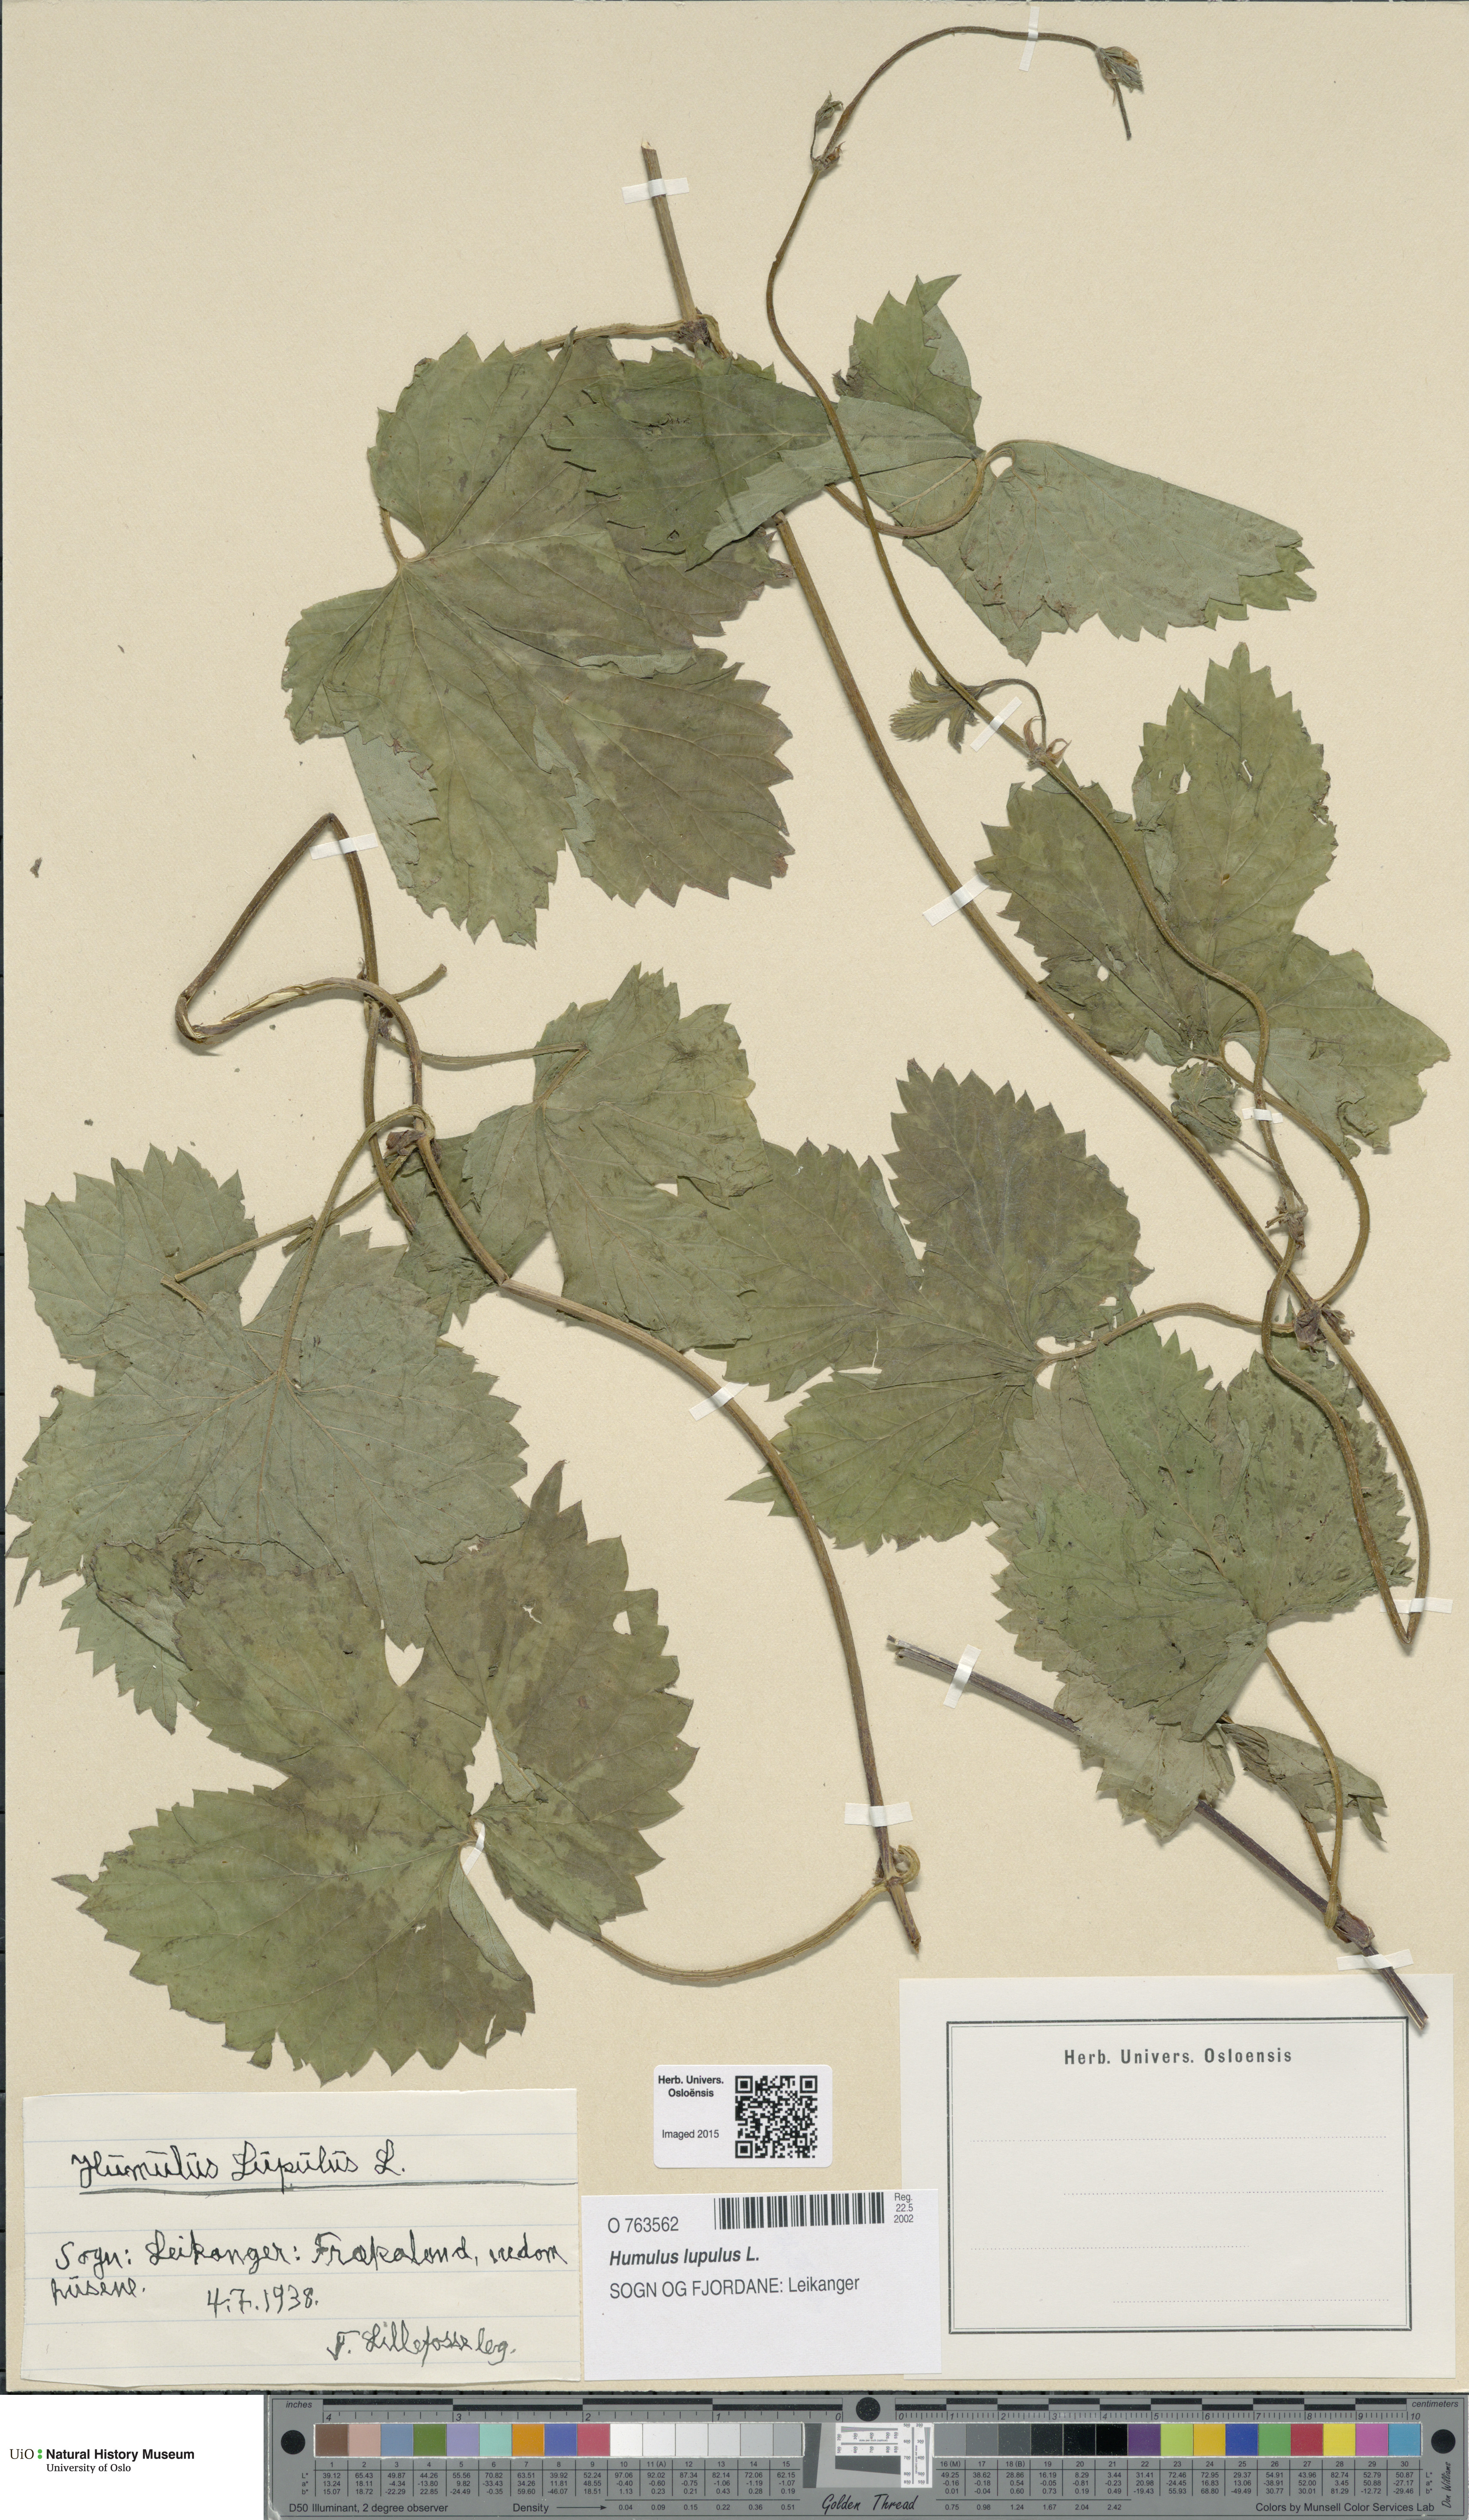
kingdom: Plantae
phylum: Tracheophyta
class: Magnoliopsida
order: Rosales
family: Cannabaceae
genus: Humulus
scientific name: Humulus lupulus
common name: Hop
